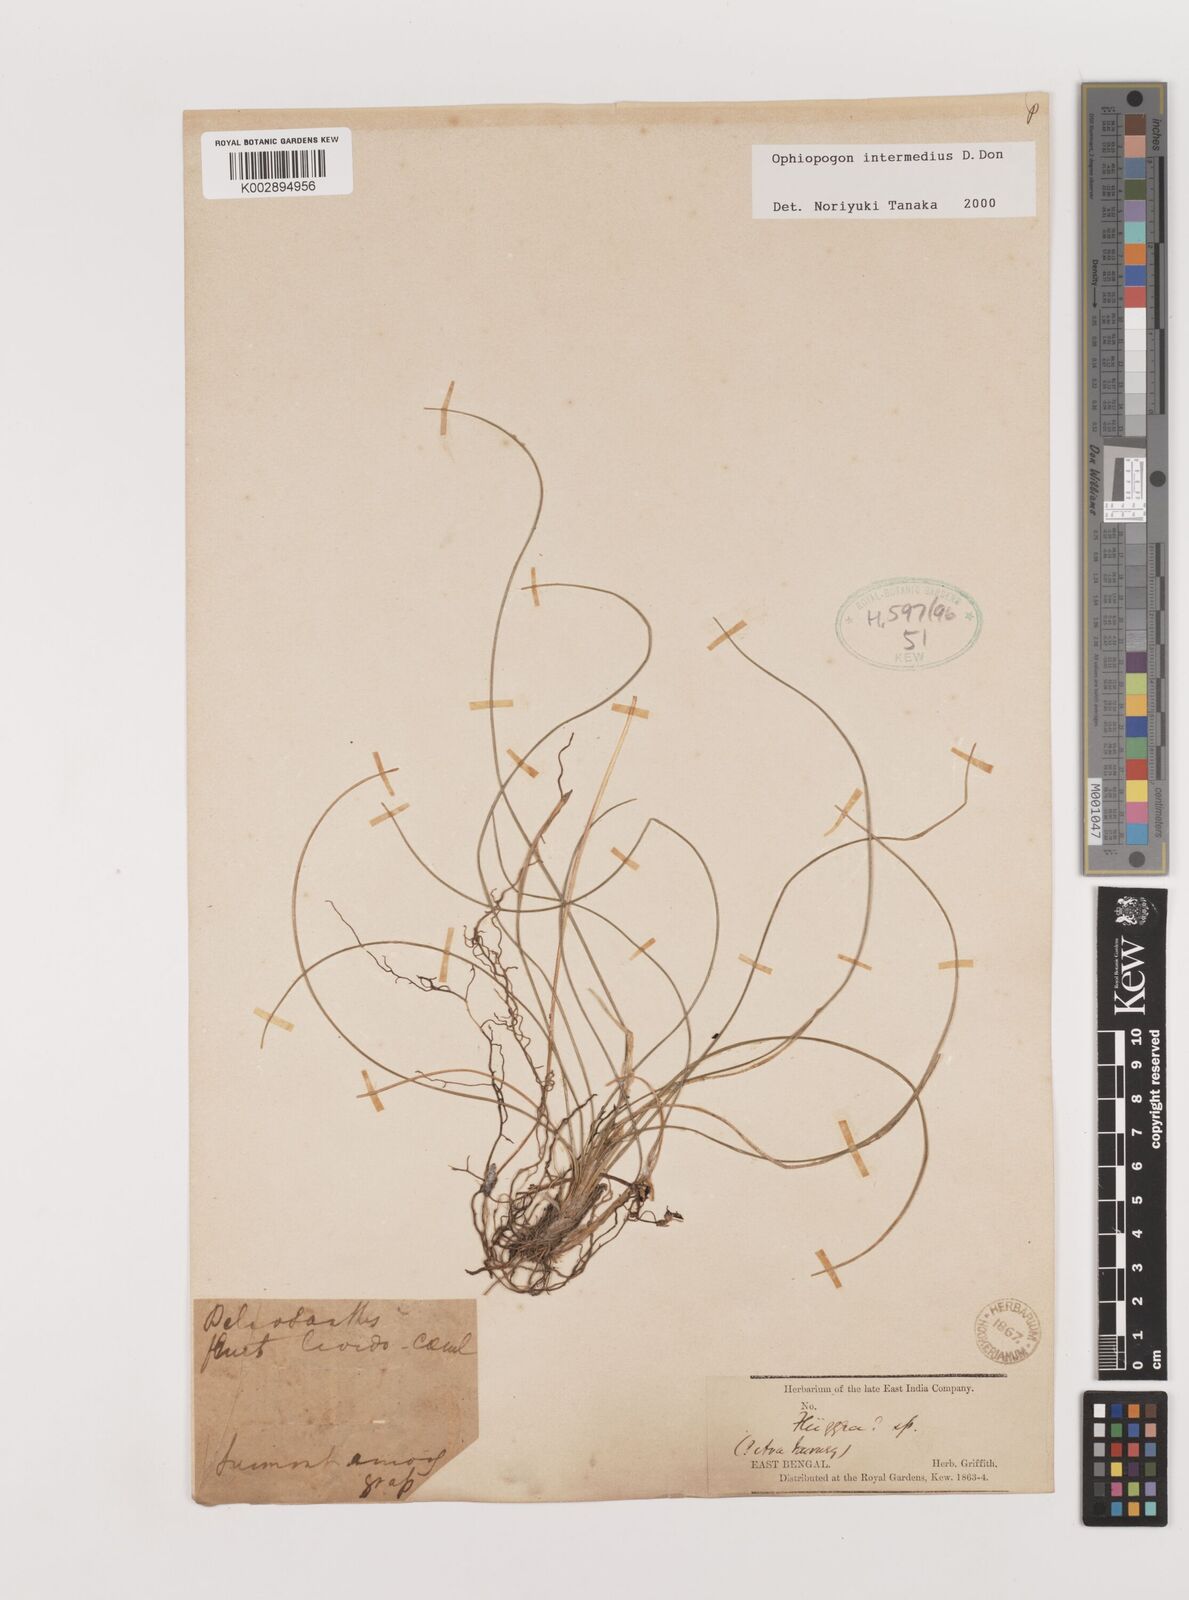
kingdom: Plantae
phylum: Tracheophyta
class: Liliopsida
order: Asparagales
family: Asparagaceae
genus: Ophiopogon
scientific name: Ophiopogon intermedius
